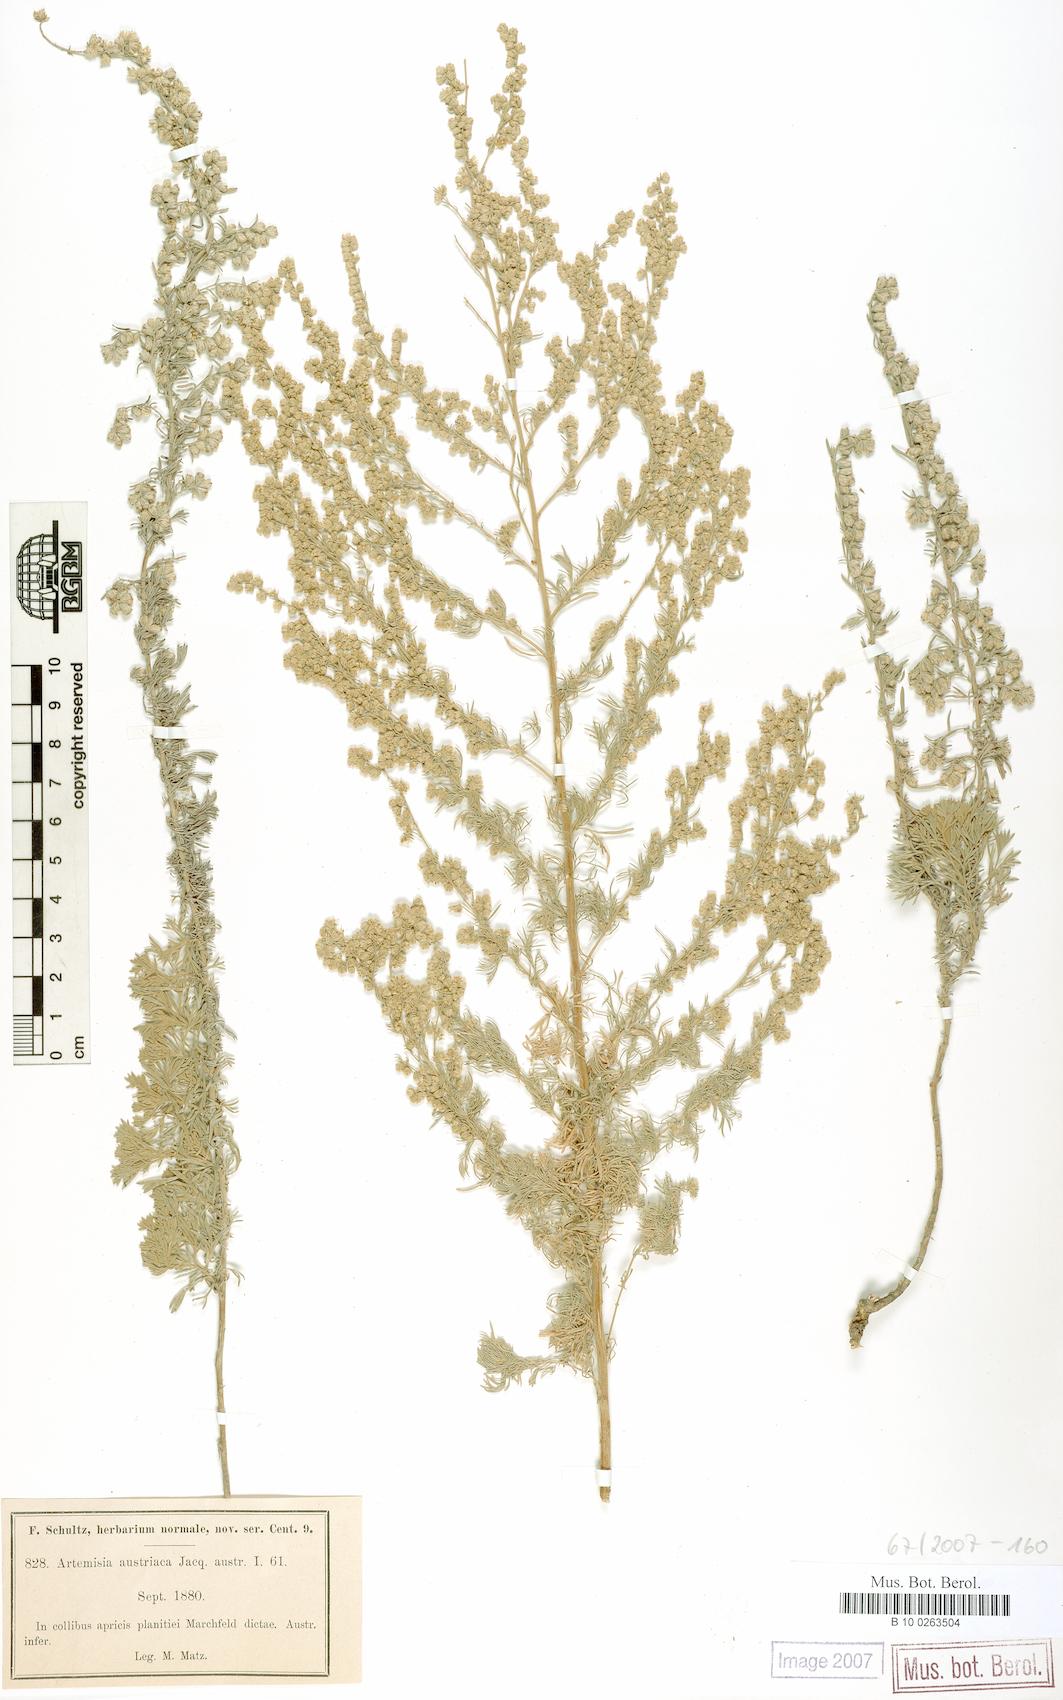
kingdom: Plantae
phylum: Tracheophyta
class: Magnoliopsida
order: Asterales
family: Asteraceae
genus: Artemisia
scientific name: Artemisia austriaca
